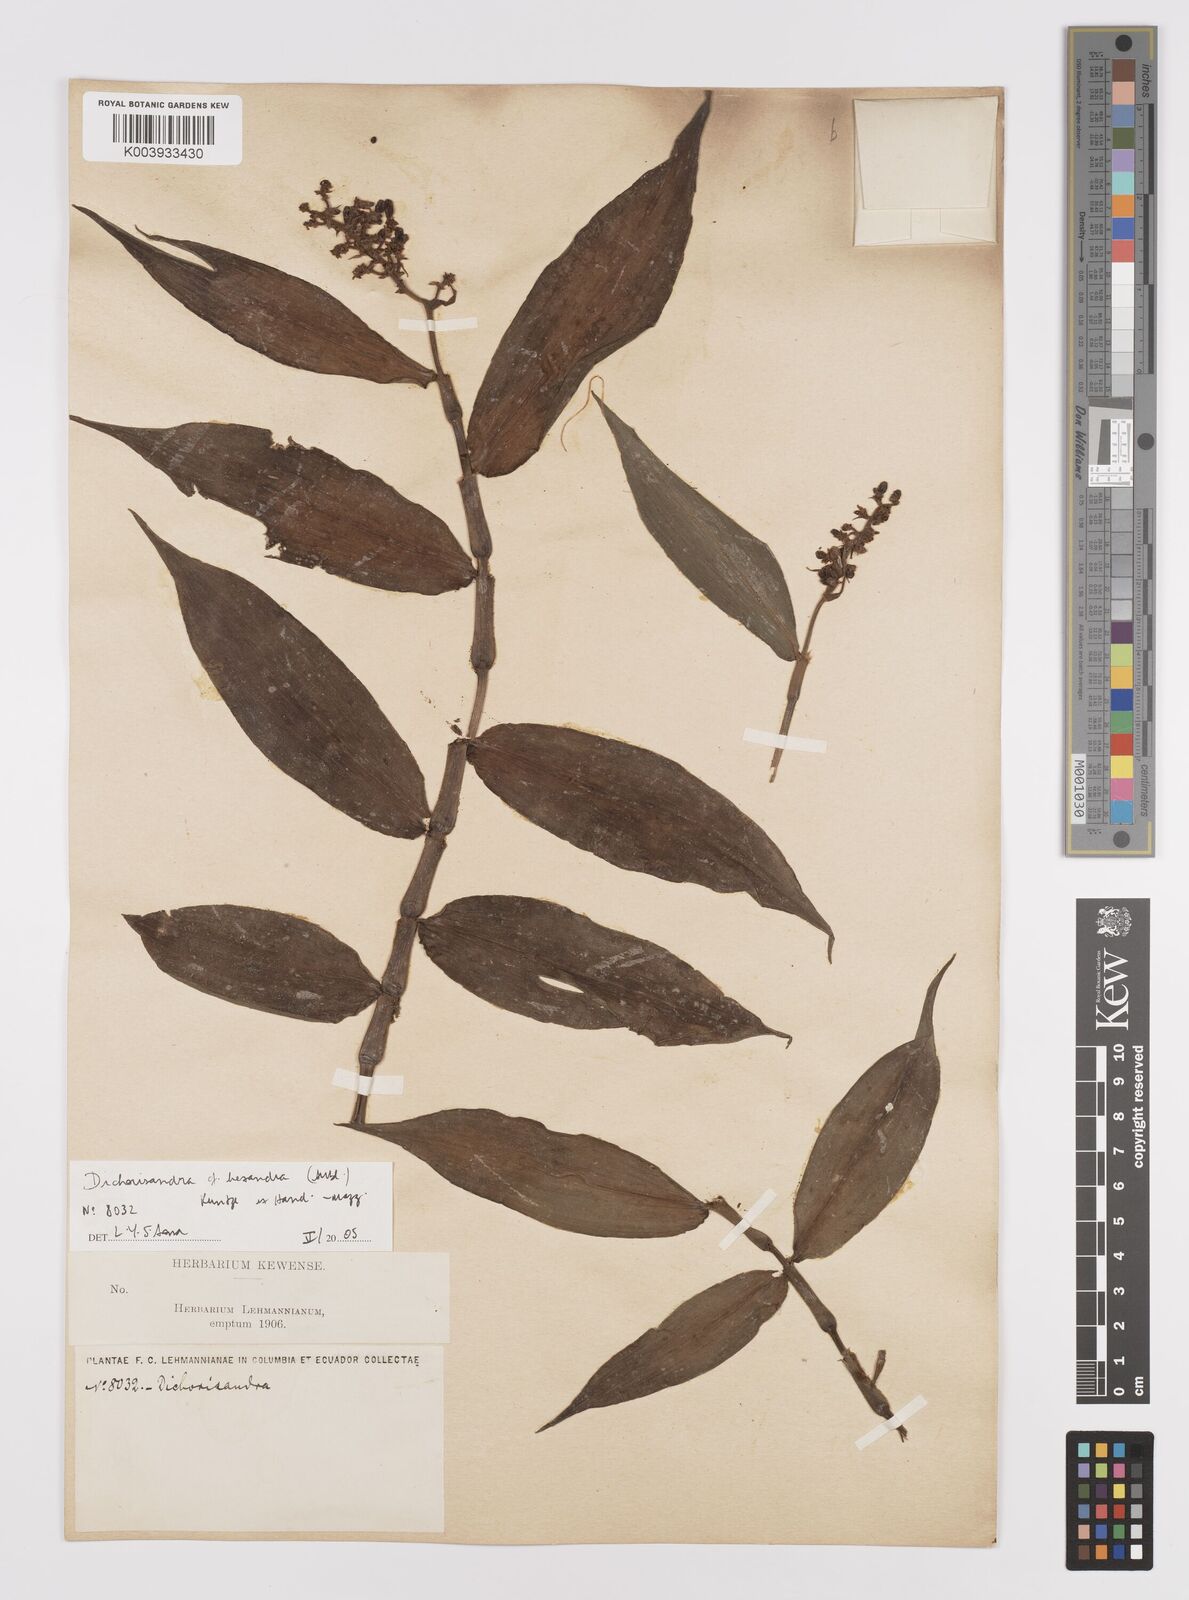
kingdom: Plantae
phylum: Tracheophyta
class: Liliopsida
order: Commelinales
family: Commelinaceae
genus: Dichorisandra
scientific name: Dichorisandra hexandra
